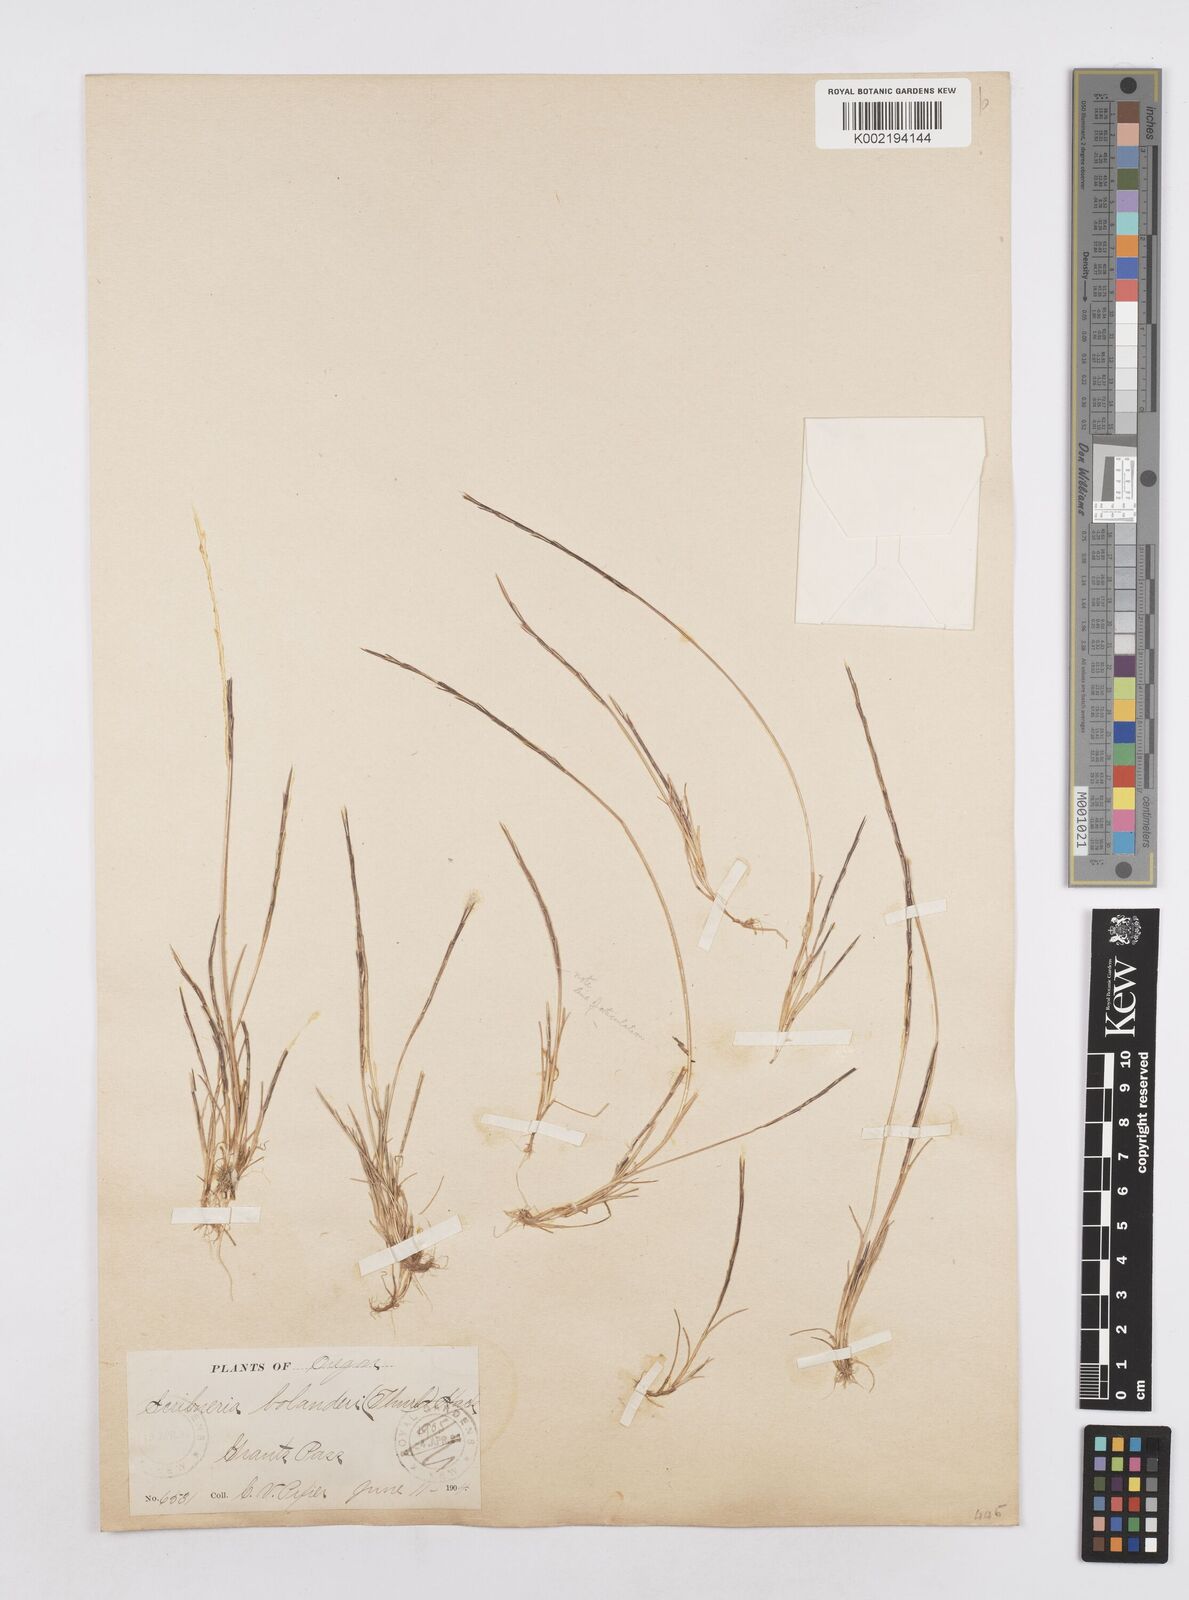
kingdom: Plantae
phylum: Tracheophyta
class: Liliopsida
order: Poales
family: Poaceae
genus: Deschampsia
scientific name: Deschampsia bolanderi
